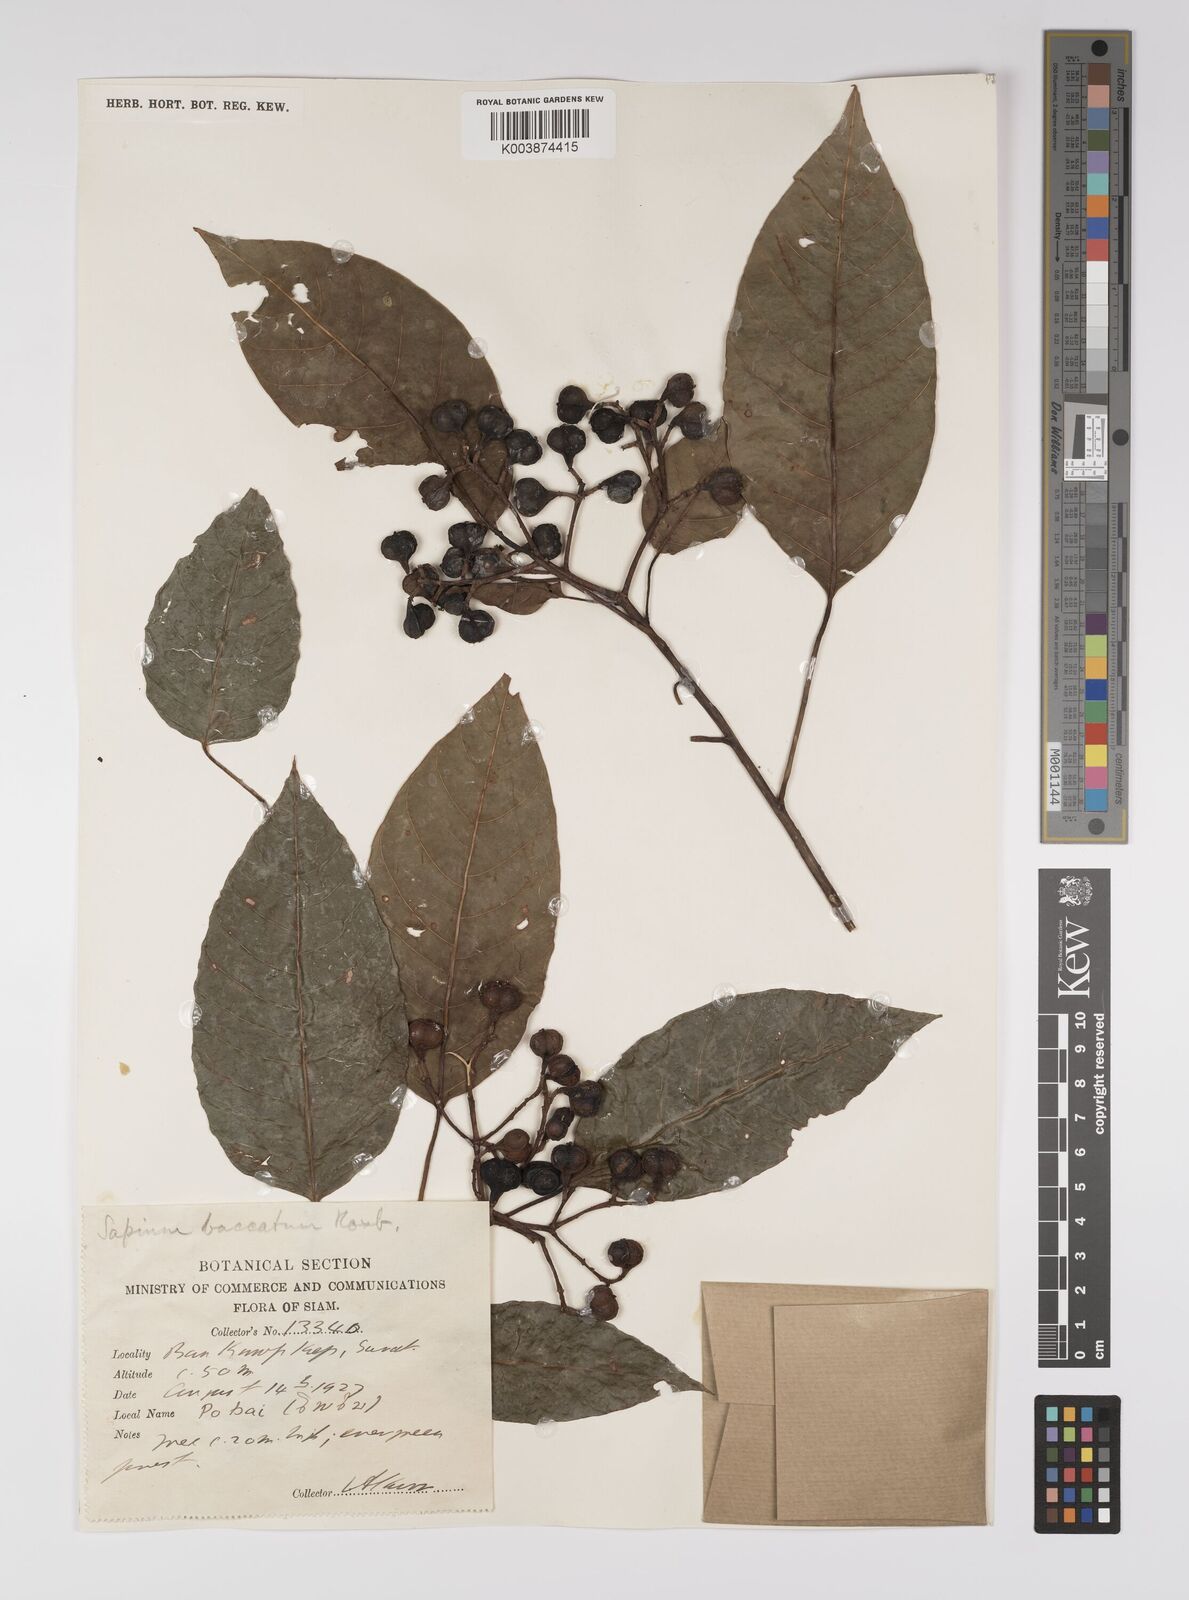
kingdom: Plantae
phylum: Tracheophyta
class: Magnoliopsida
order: Malpighiales
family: Euphorbiaceae
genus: Balakata
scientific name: Balakata baccata
